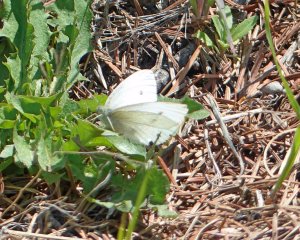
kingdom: Animalia
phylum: Arthropoda
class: Insecta
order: Lepidoptera
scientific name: Lepidoptera
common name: Butterflies
